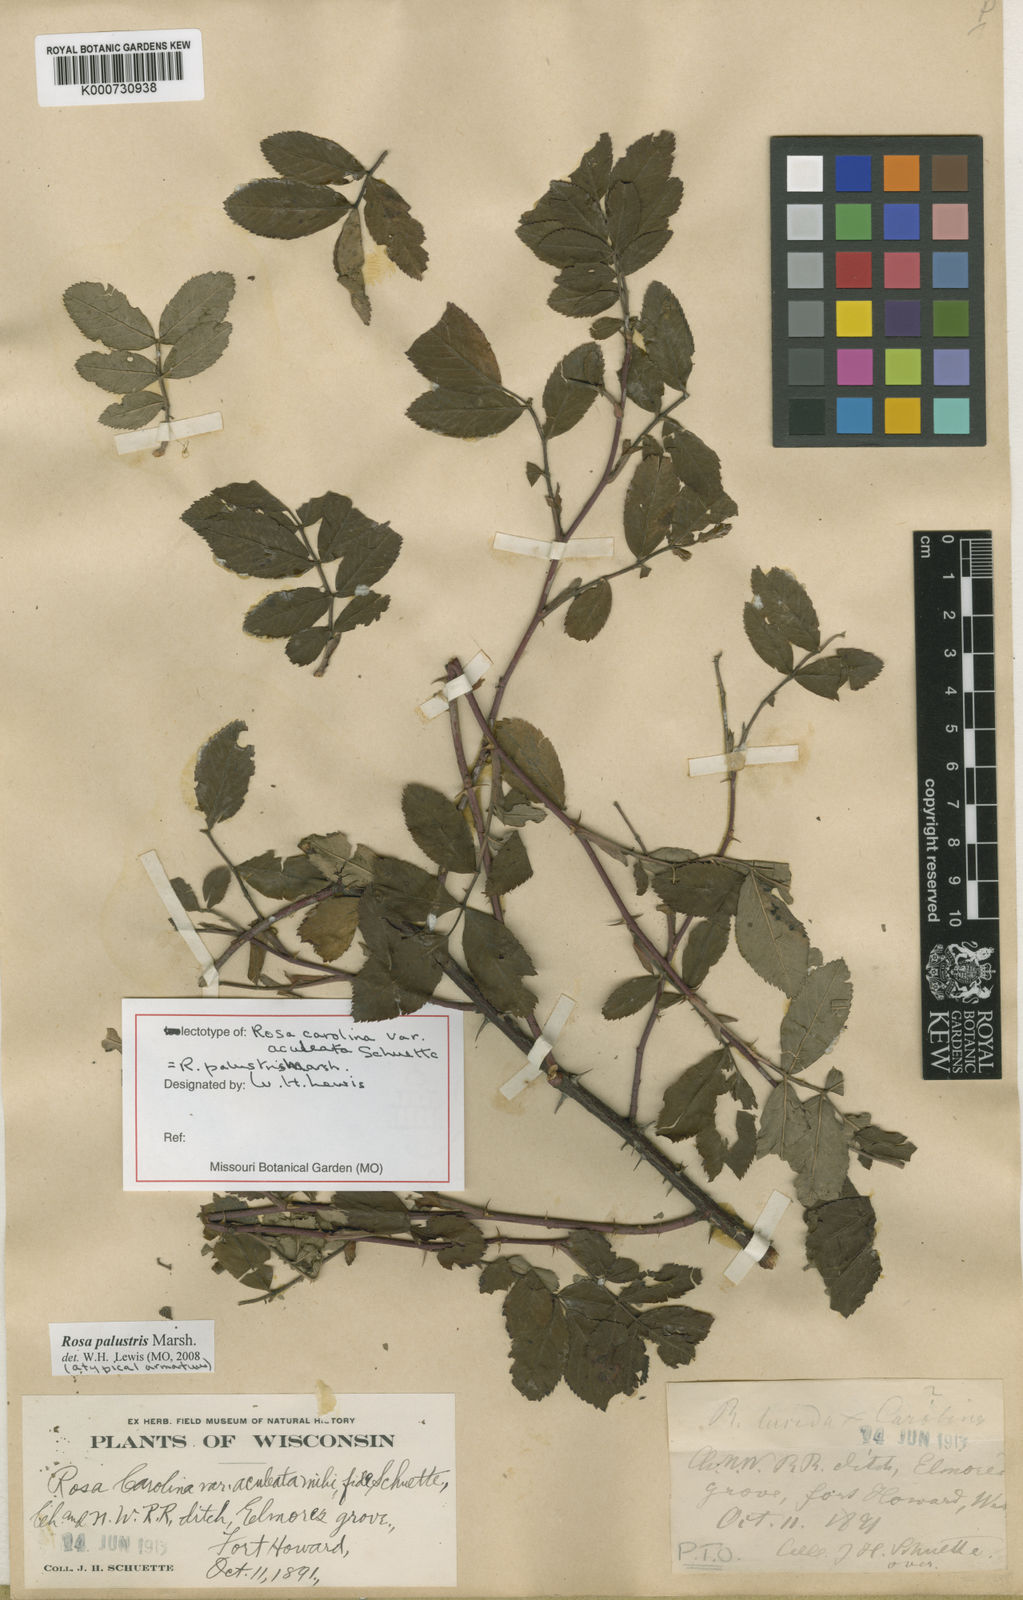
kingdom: Plantae
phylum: Tracheophyta
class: Magnoliopsida
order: Rosales
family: Rosaceae
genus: Rosa
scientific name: Rosa carolina
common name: Pasture rose
